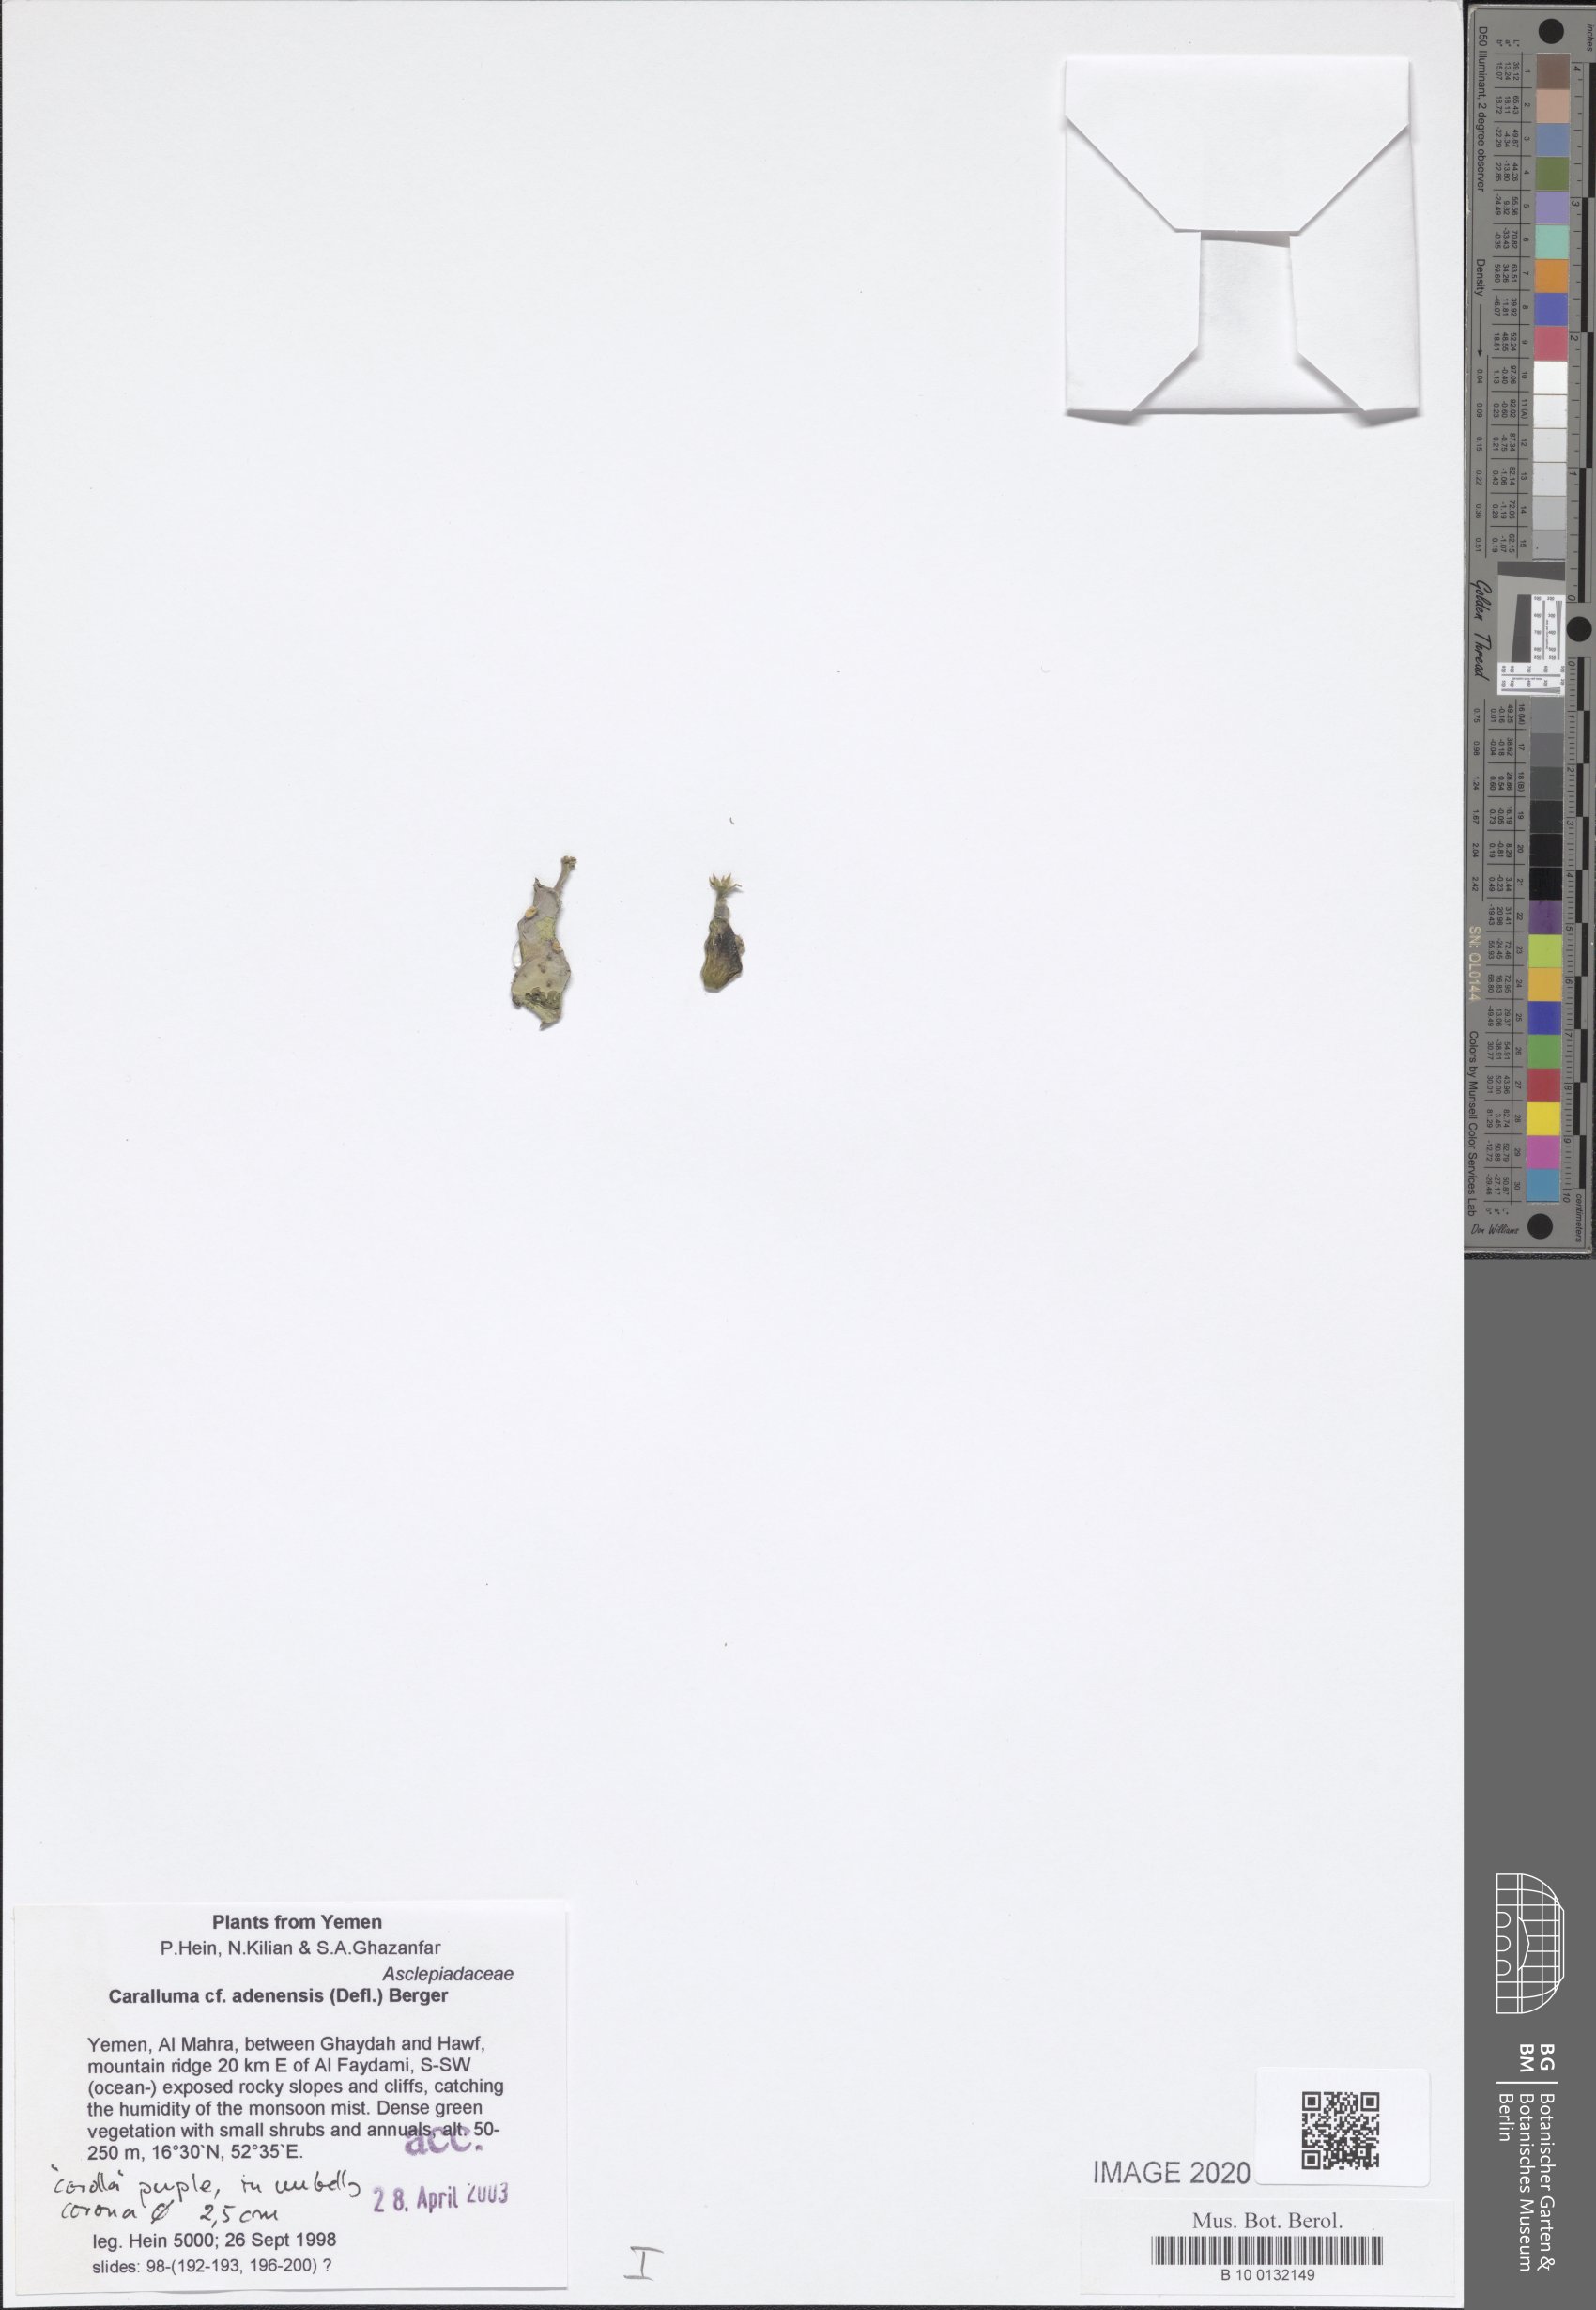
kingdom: Plantae
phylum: Tracheophyta
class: Magnoliopsida
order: Gentianales
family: Apocynaceae
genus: Ceropegia
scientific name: Ceropegia adenensis
